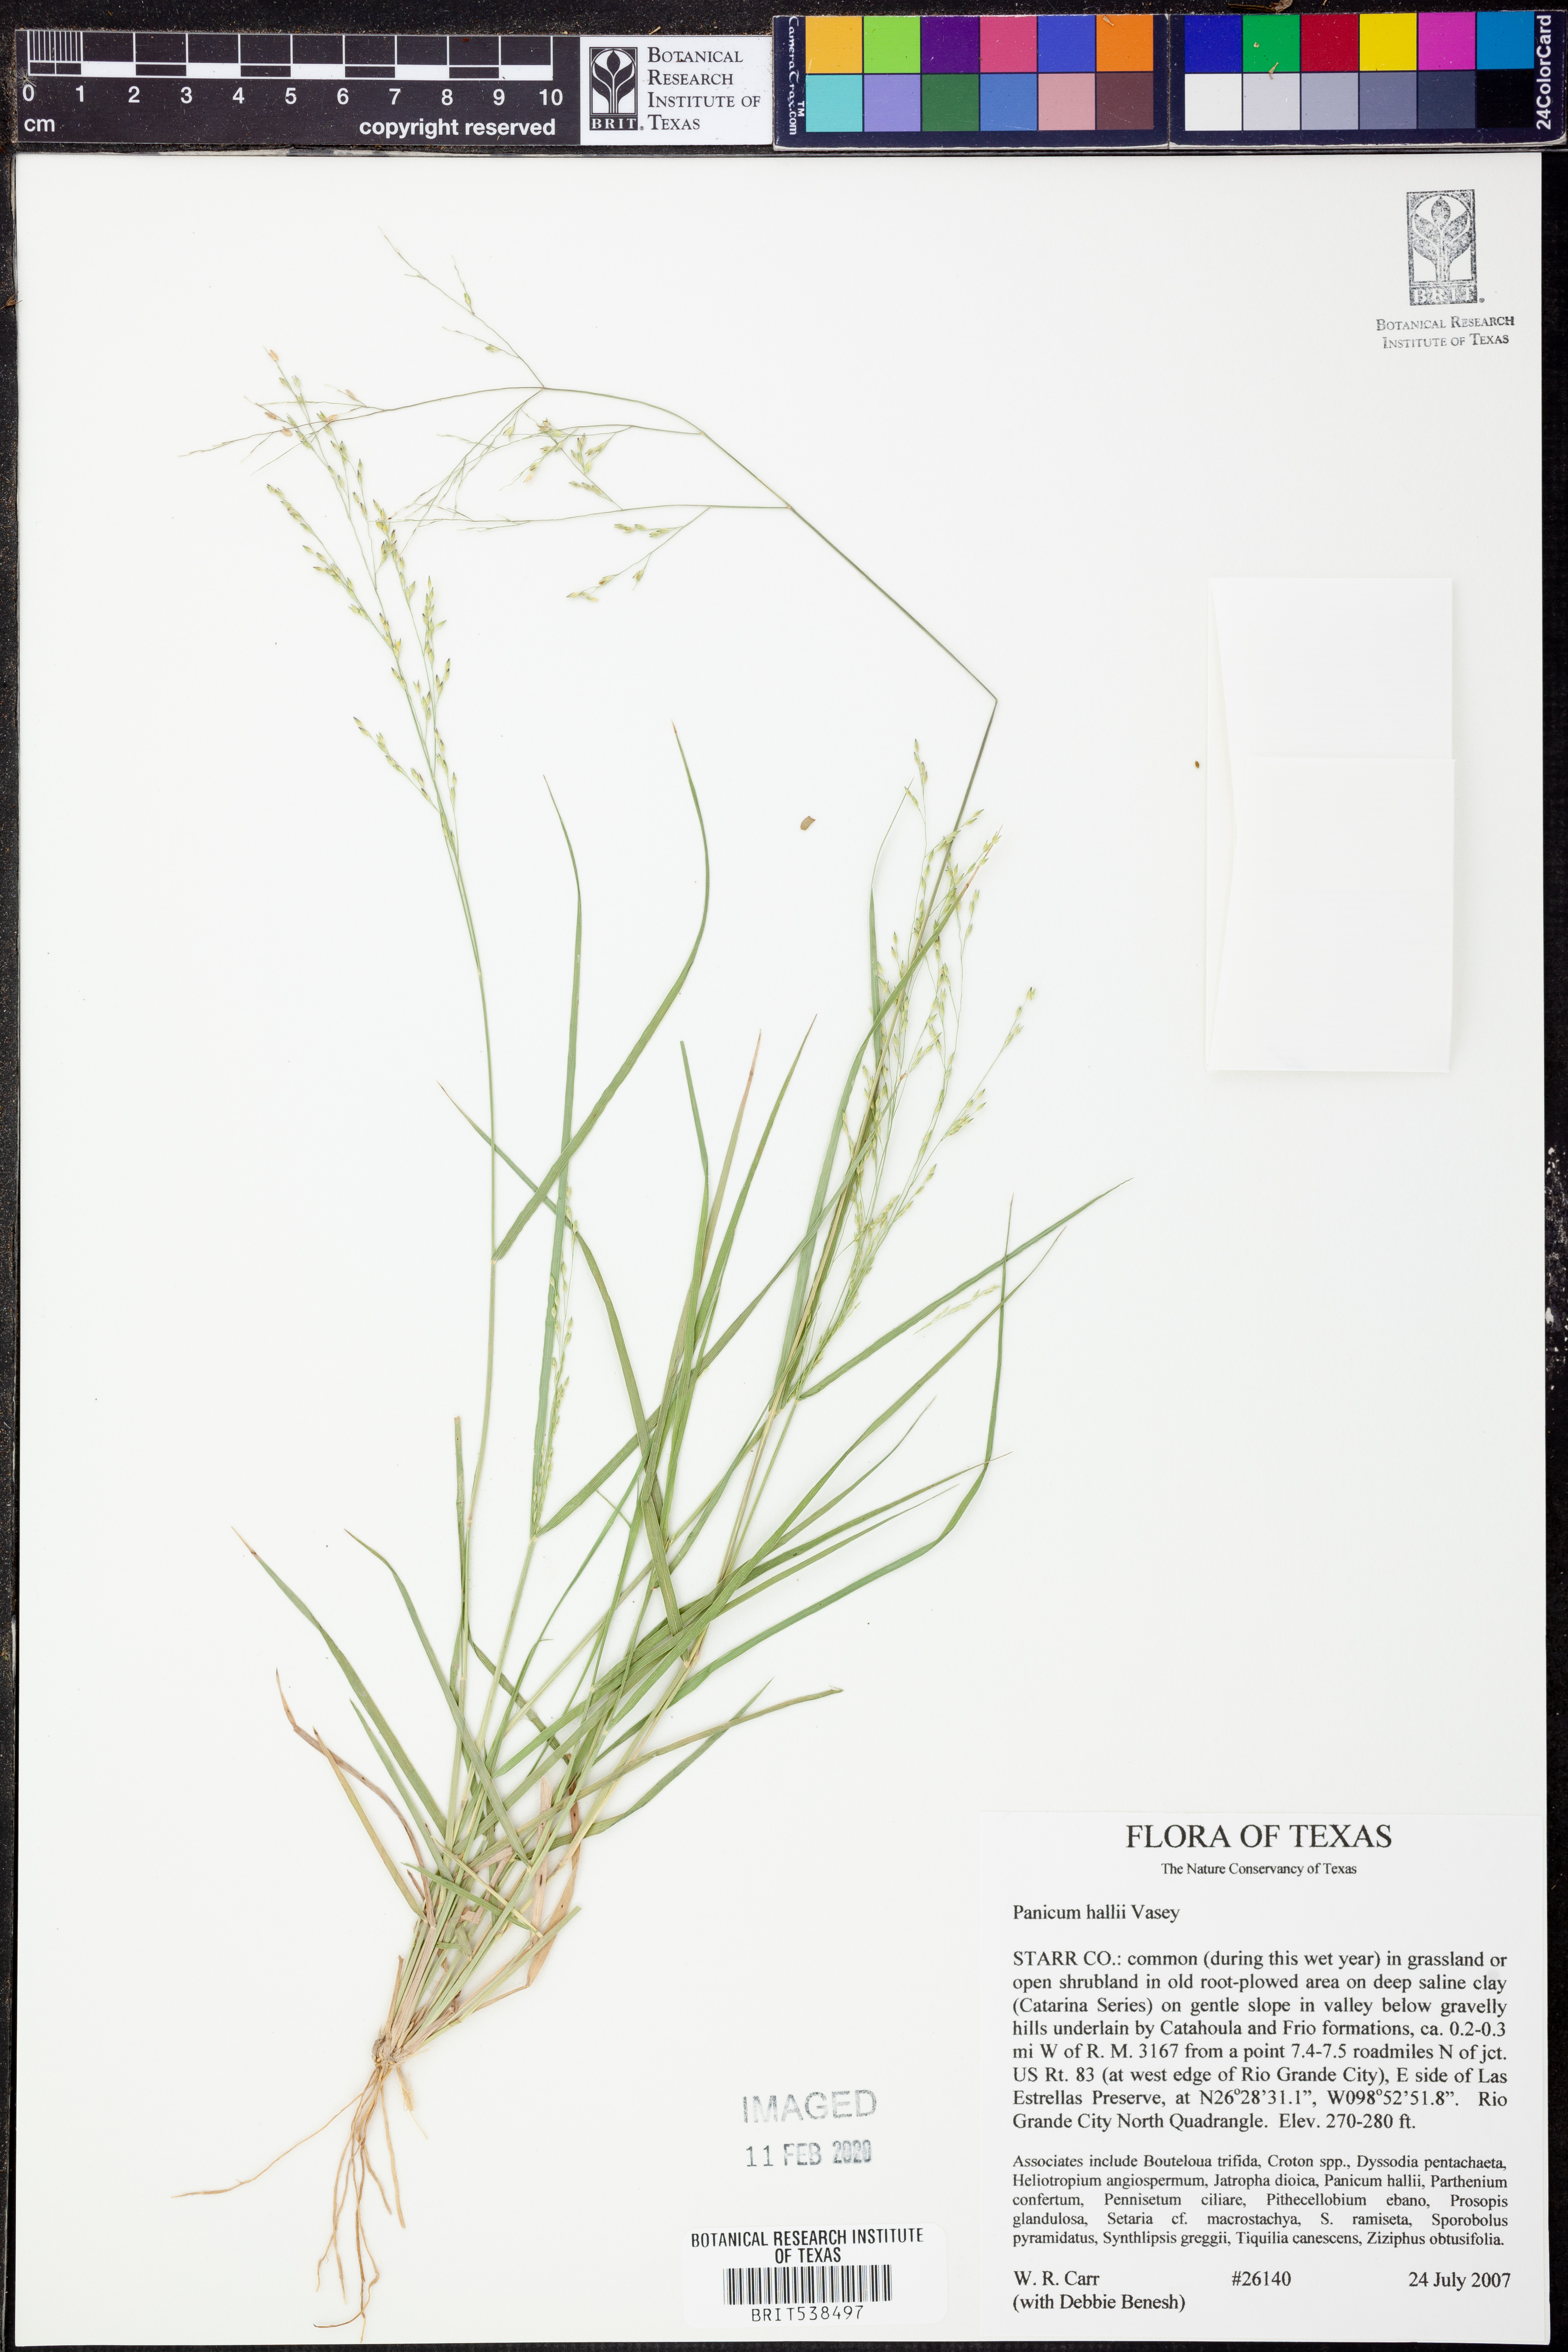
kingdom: Plantae
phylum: Tracheophyta
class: Liliopsida
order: Poales
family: Poaceae
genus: Panicum
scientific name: Panicum hallii
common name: Hall's witchgrass
